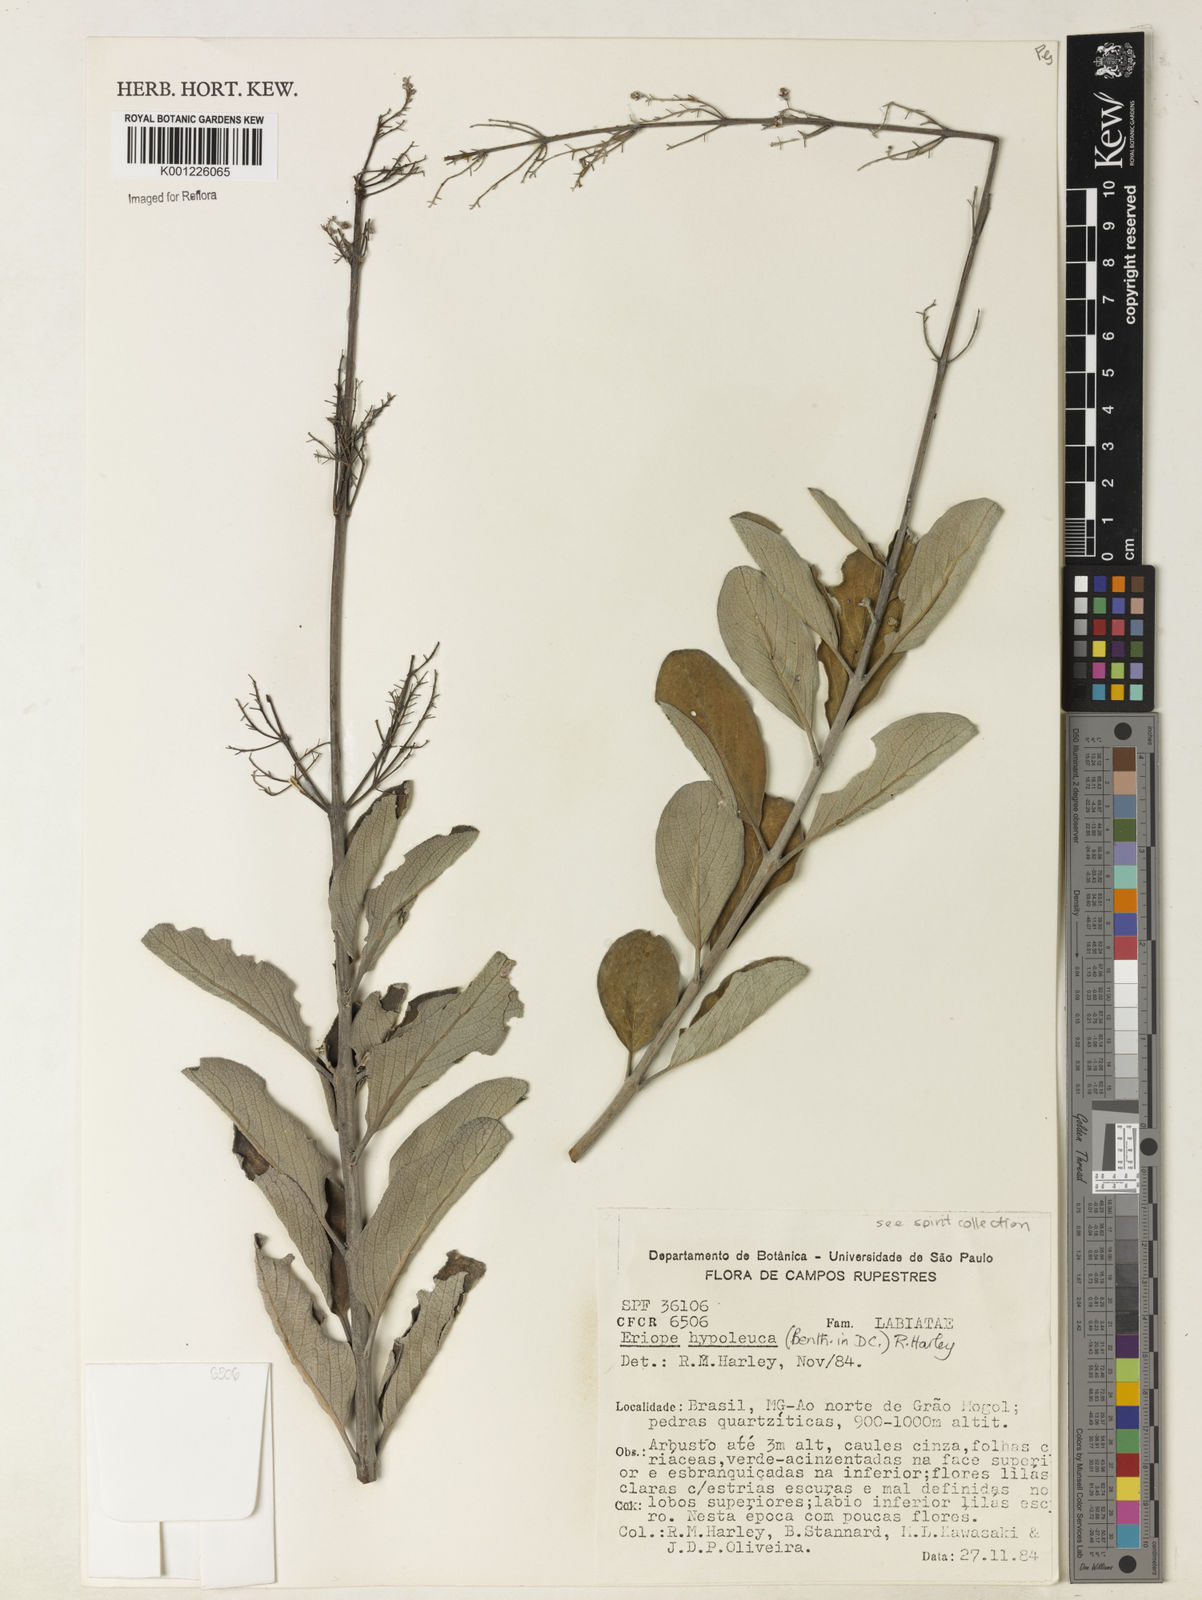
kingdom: Plantae
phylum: Tracheophyta
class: Magnoliopsida
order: Lamiales
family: Lamiaceae
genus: Eriope
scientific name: Eriope hypoleuca
